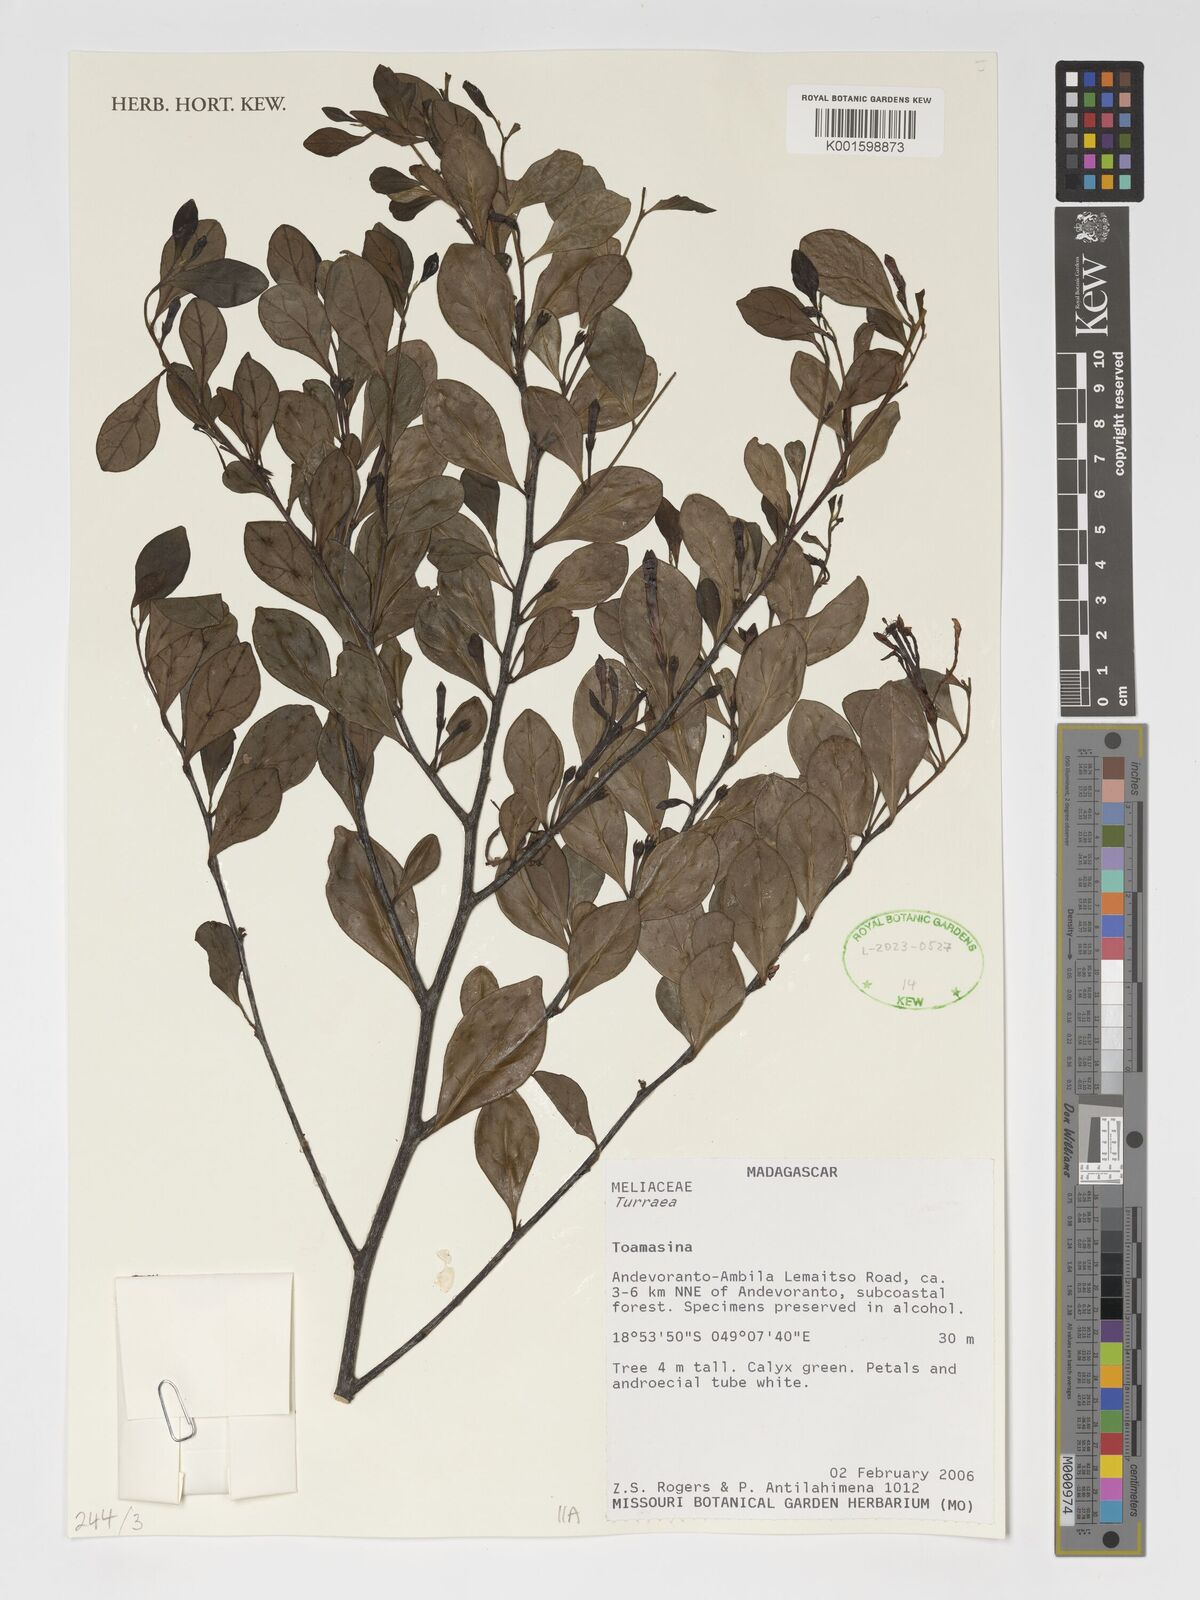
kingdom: Plantae
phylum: Tracheophyta
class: Magnoliopsida
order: Sapindales
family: Meliaceae
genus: Turraea
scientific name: Turraea
